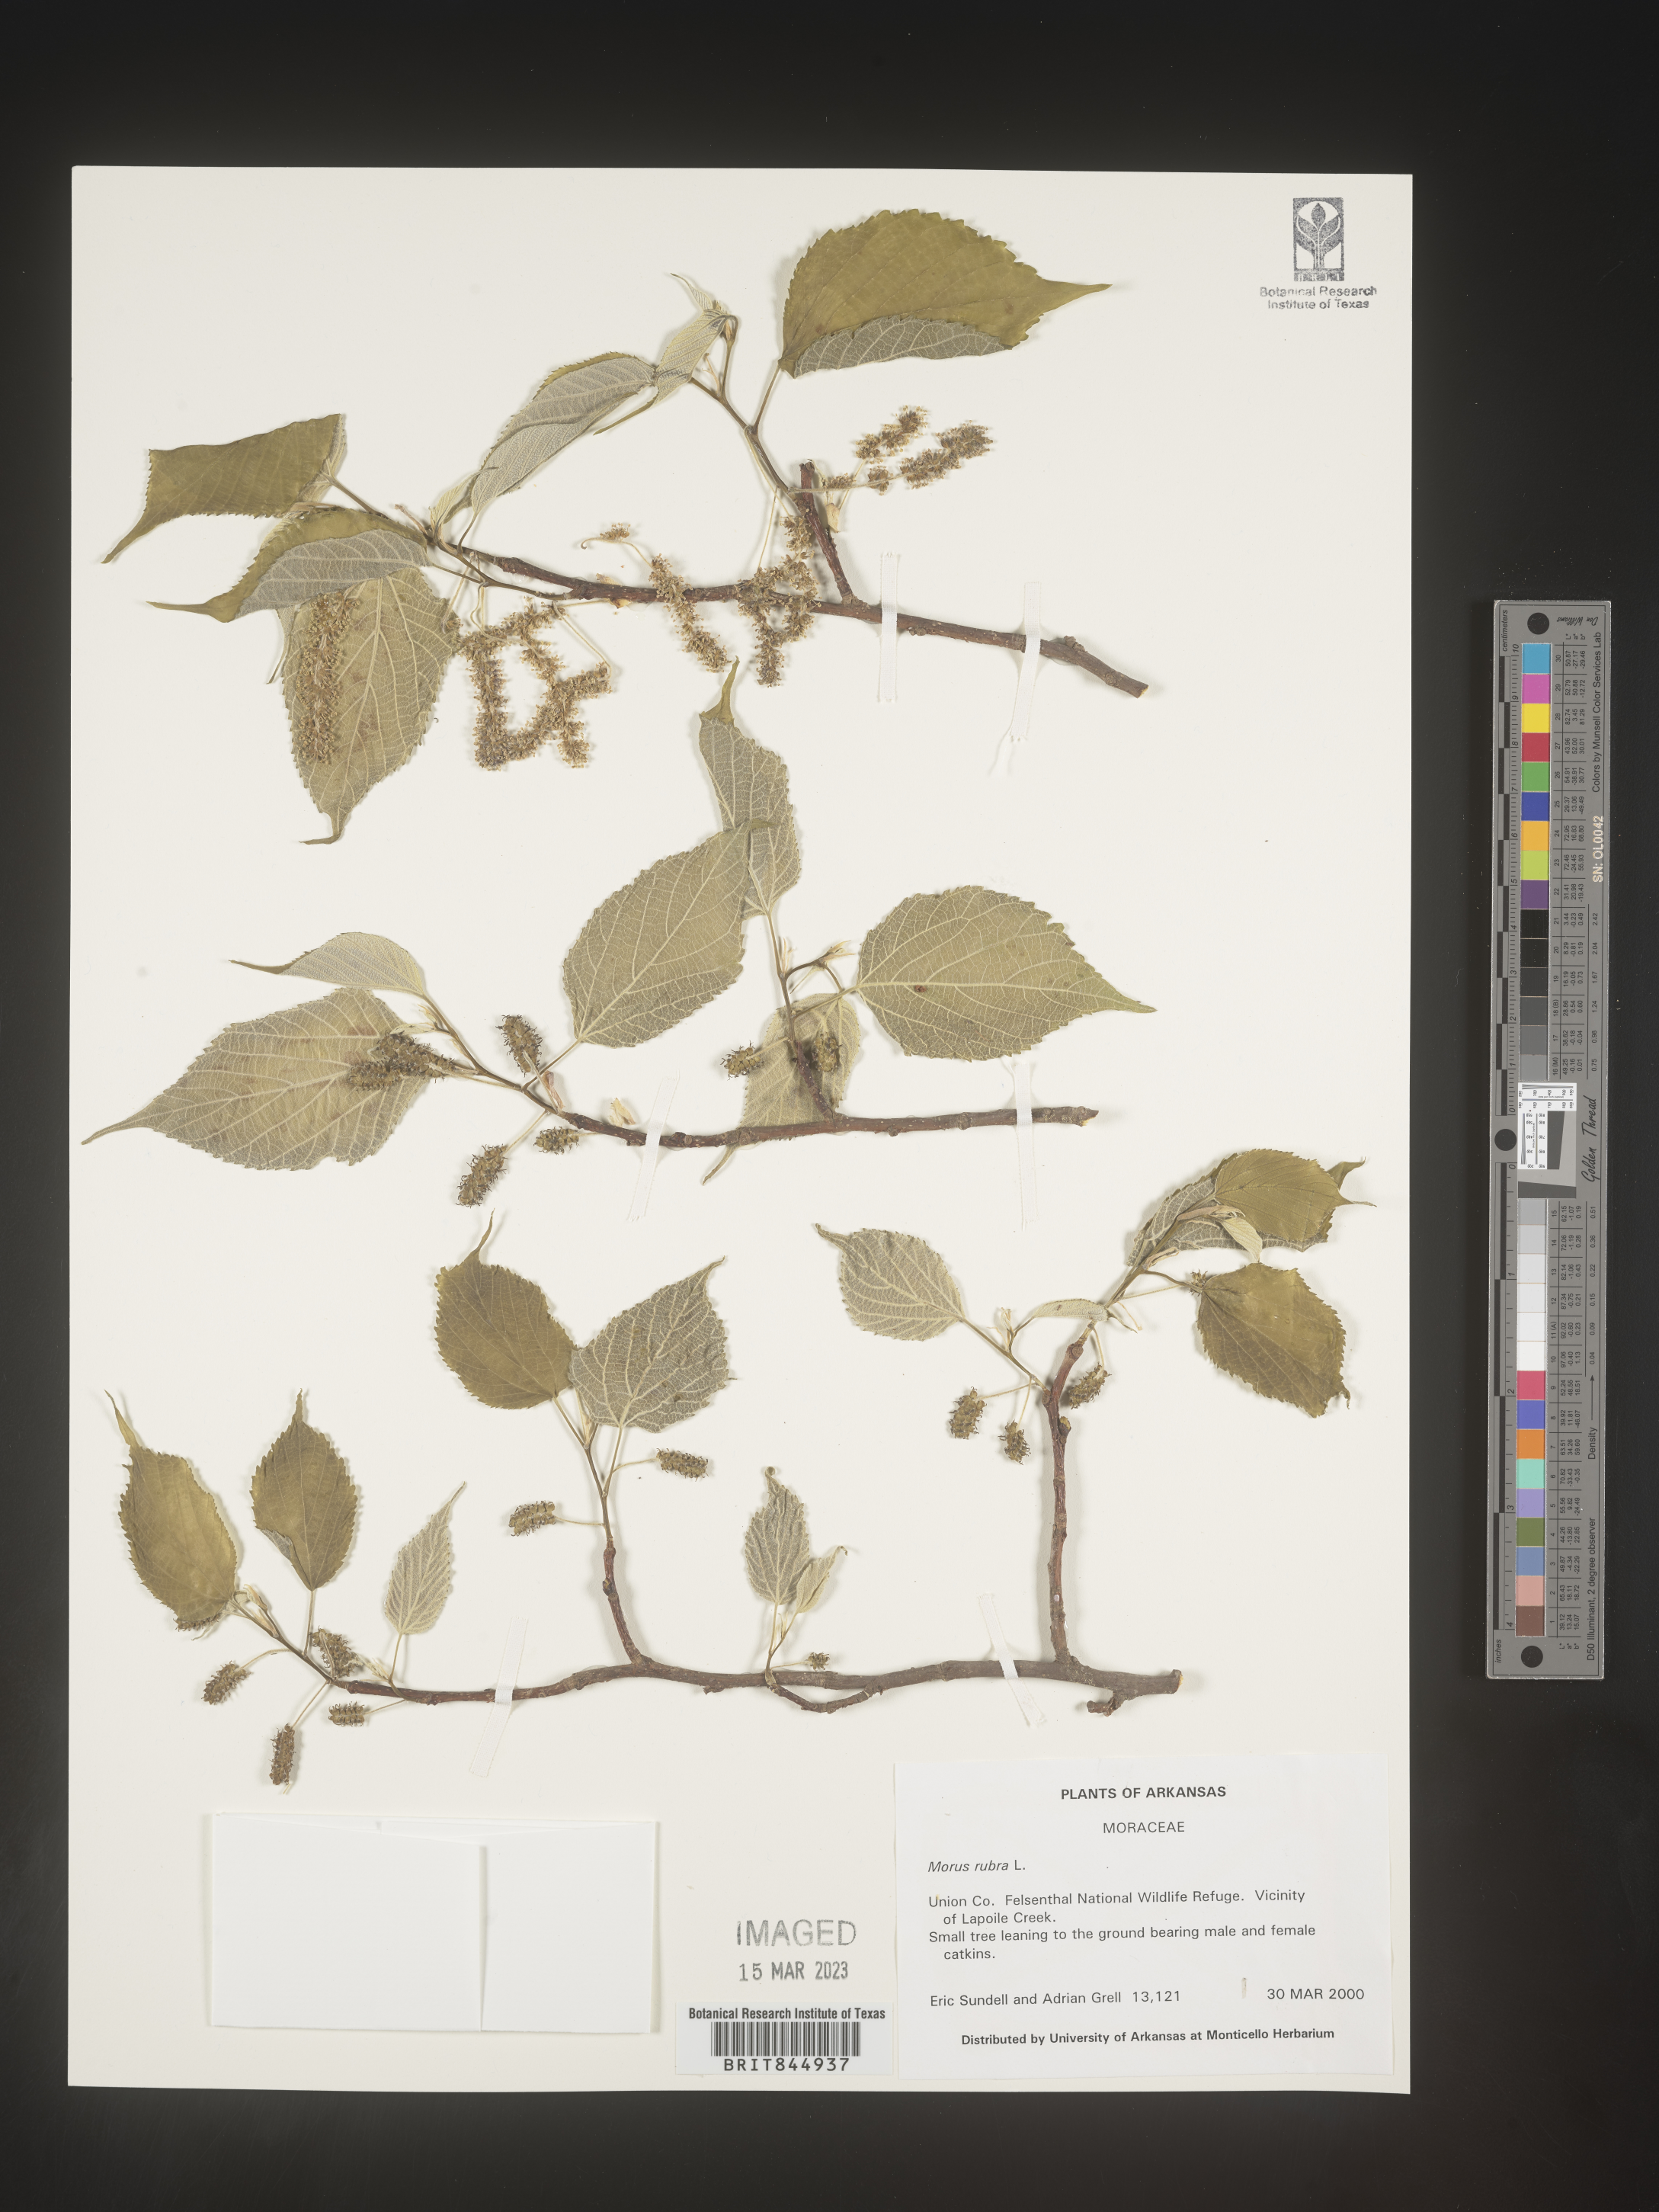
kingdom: Plantae
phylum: Tracheophyta
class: Magnoliopsida
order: Rosales
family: Moraceae
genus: Morus
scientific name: Morus rubra
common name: Red mulberry
